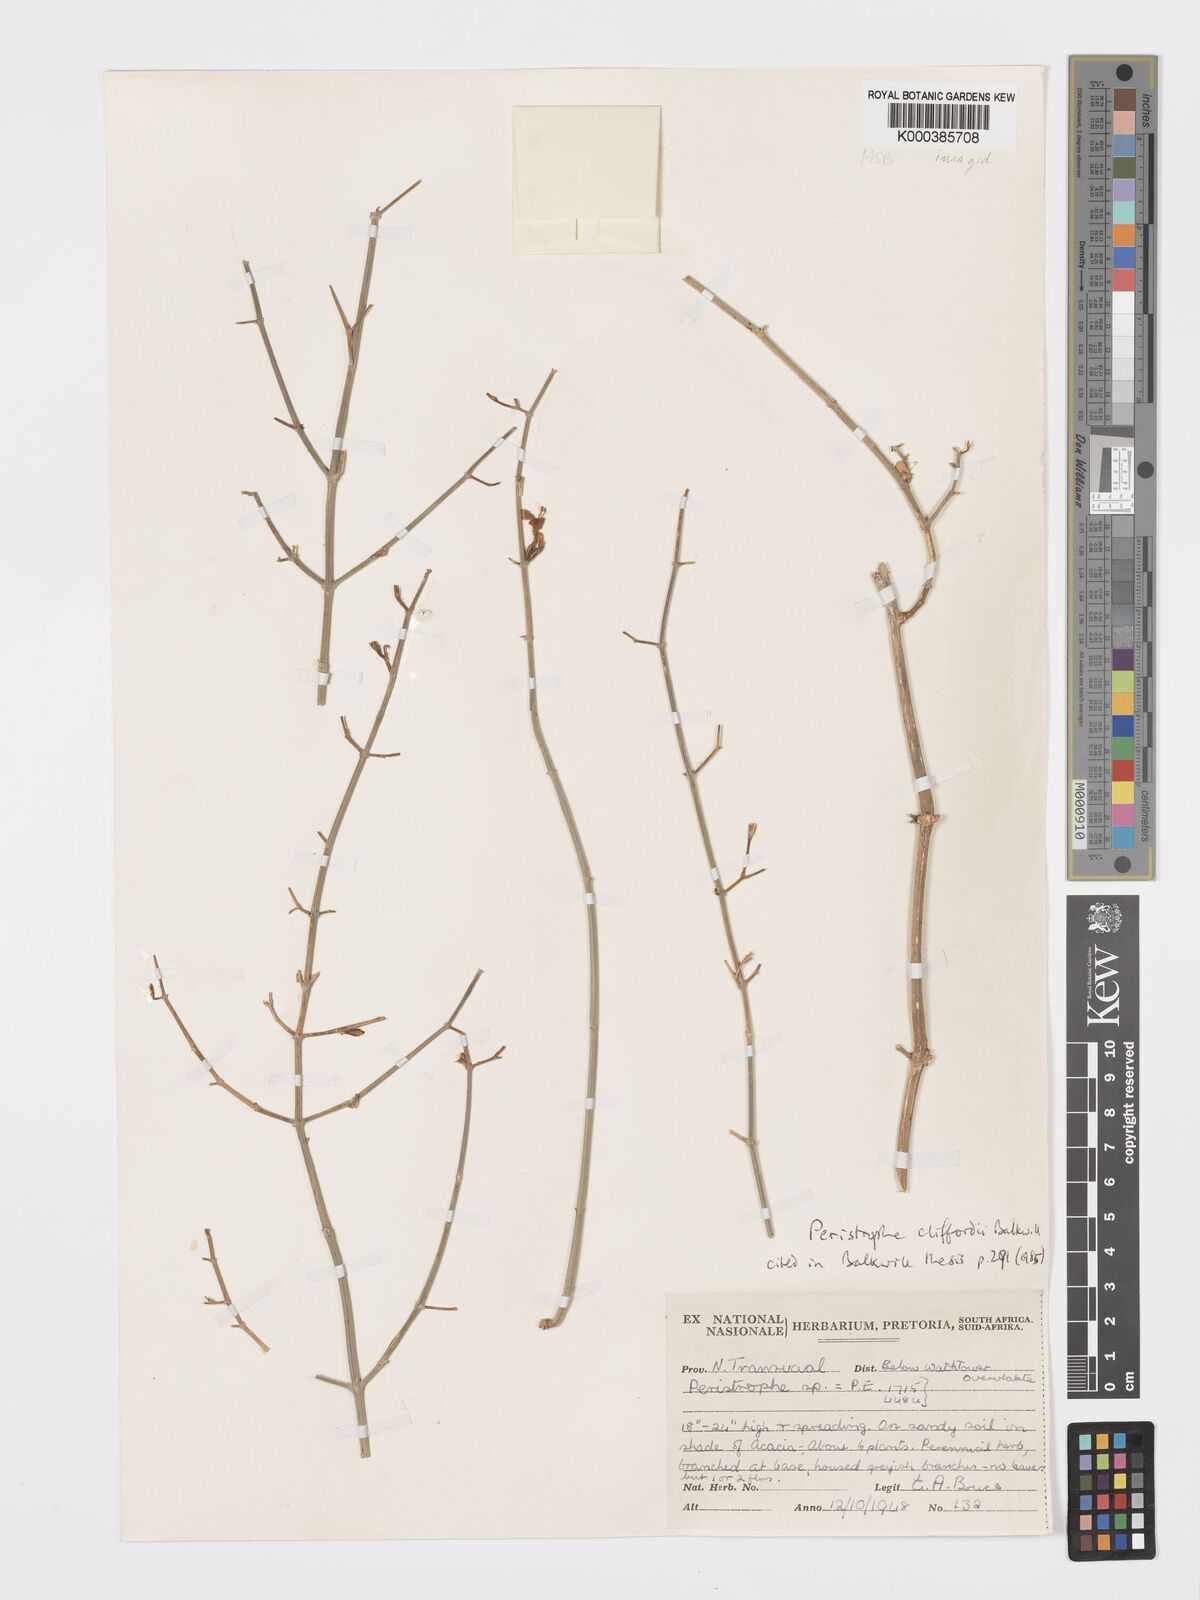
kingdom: Plantae
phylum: Tracheophyta
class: Magnoliopsida
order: Lamiales
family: Acanthaceae
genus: Dicliptera
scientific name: Dicliptera cliffordii
